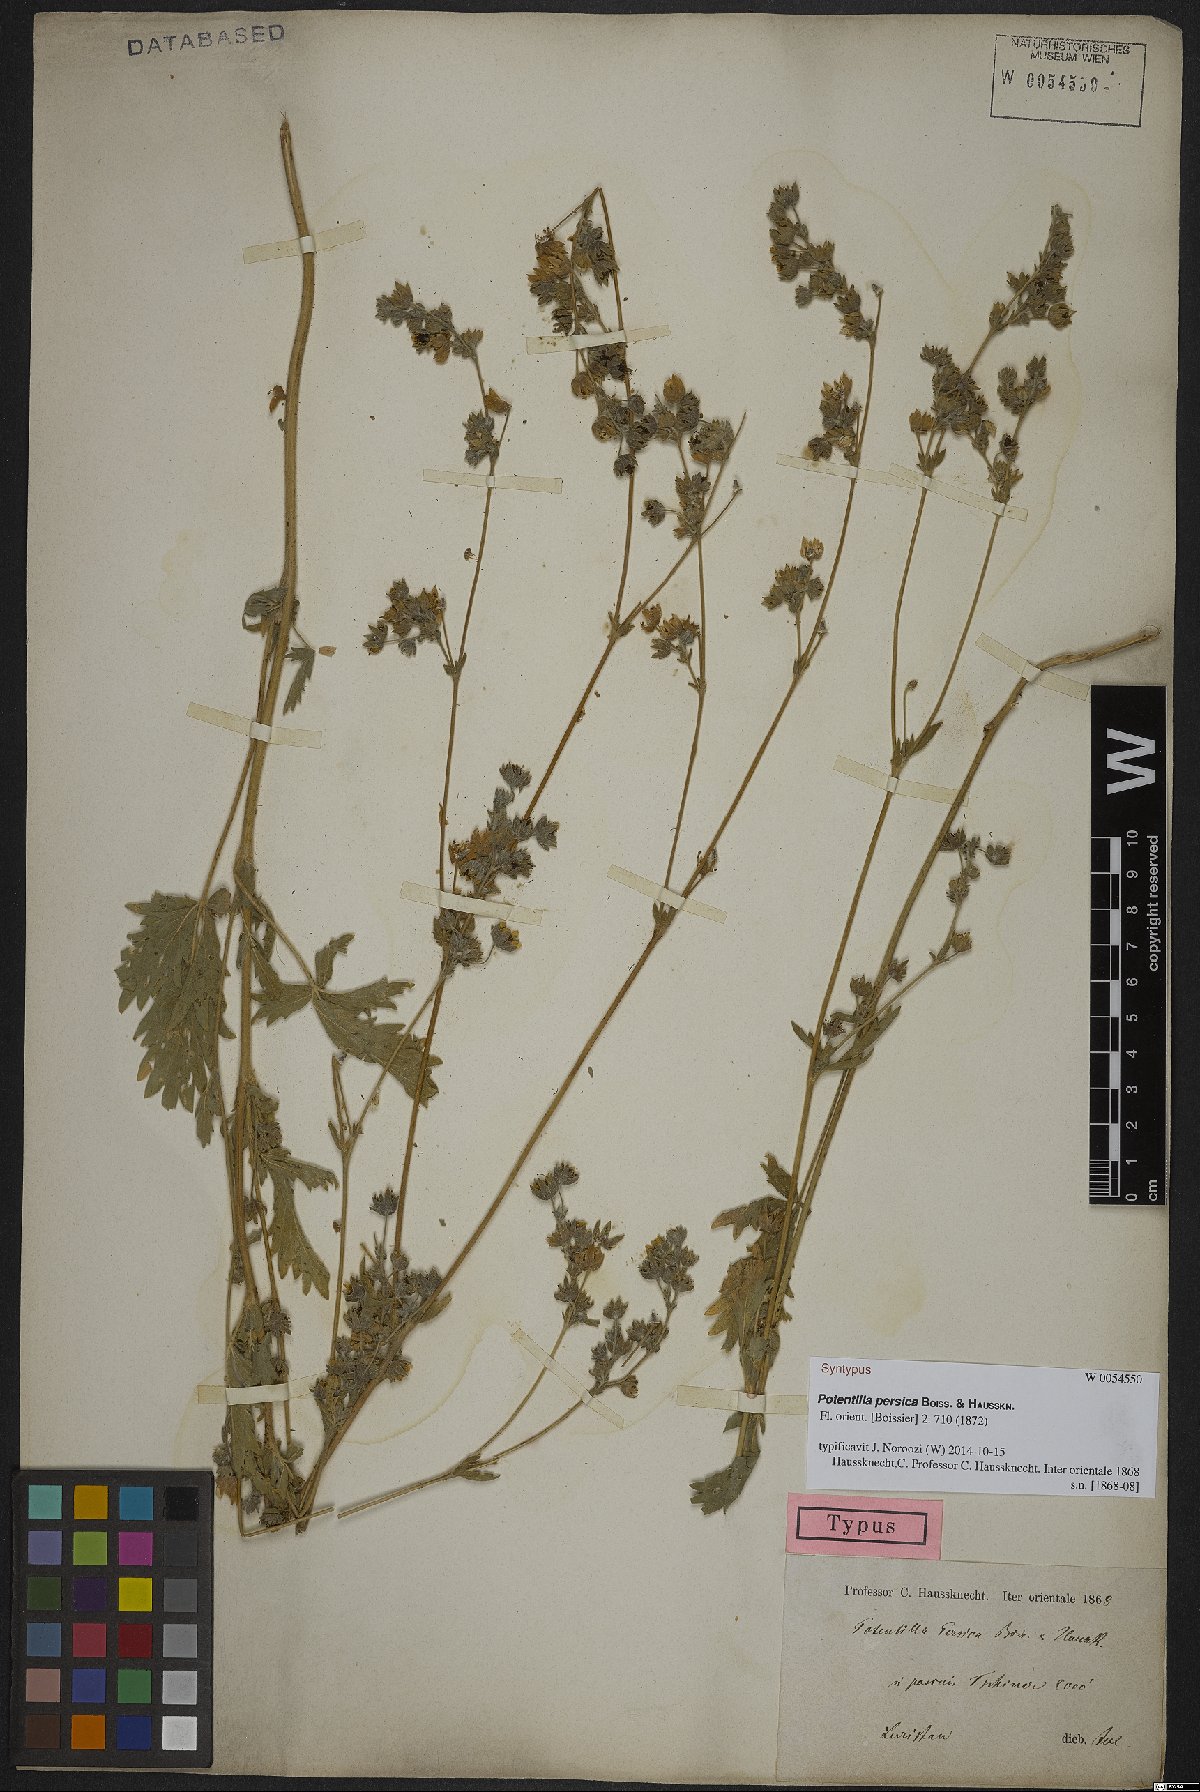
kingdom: Plantae
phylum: Tracheophyta
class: Magnoliopsida
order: Rosales
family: Rosaceae
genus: Potentilla
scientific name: Potentilla persica
